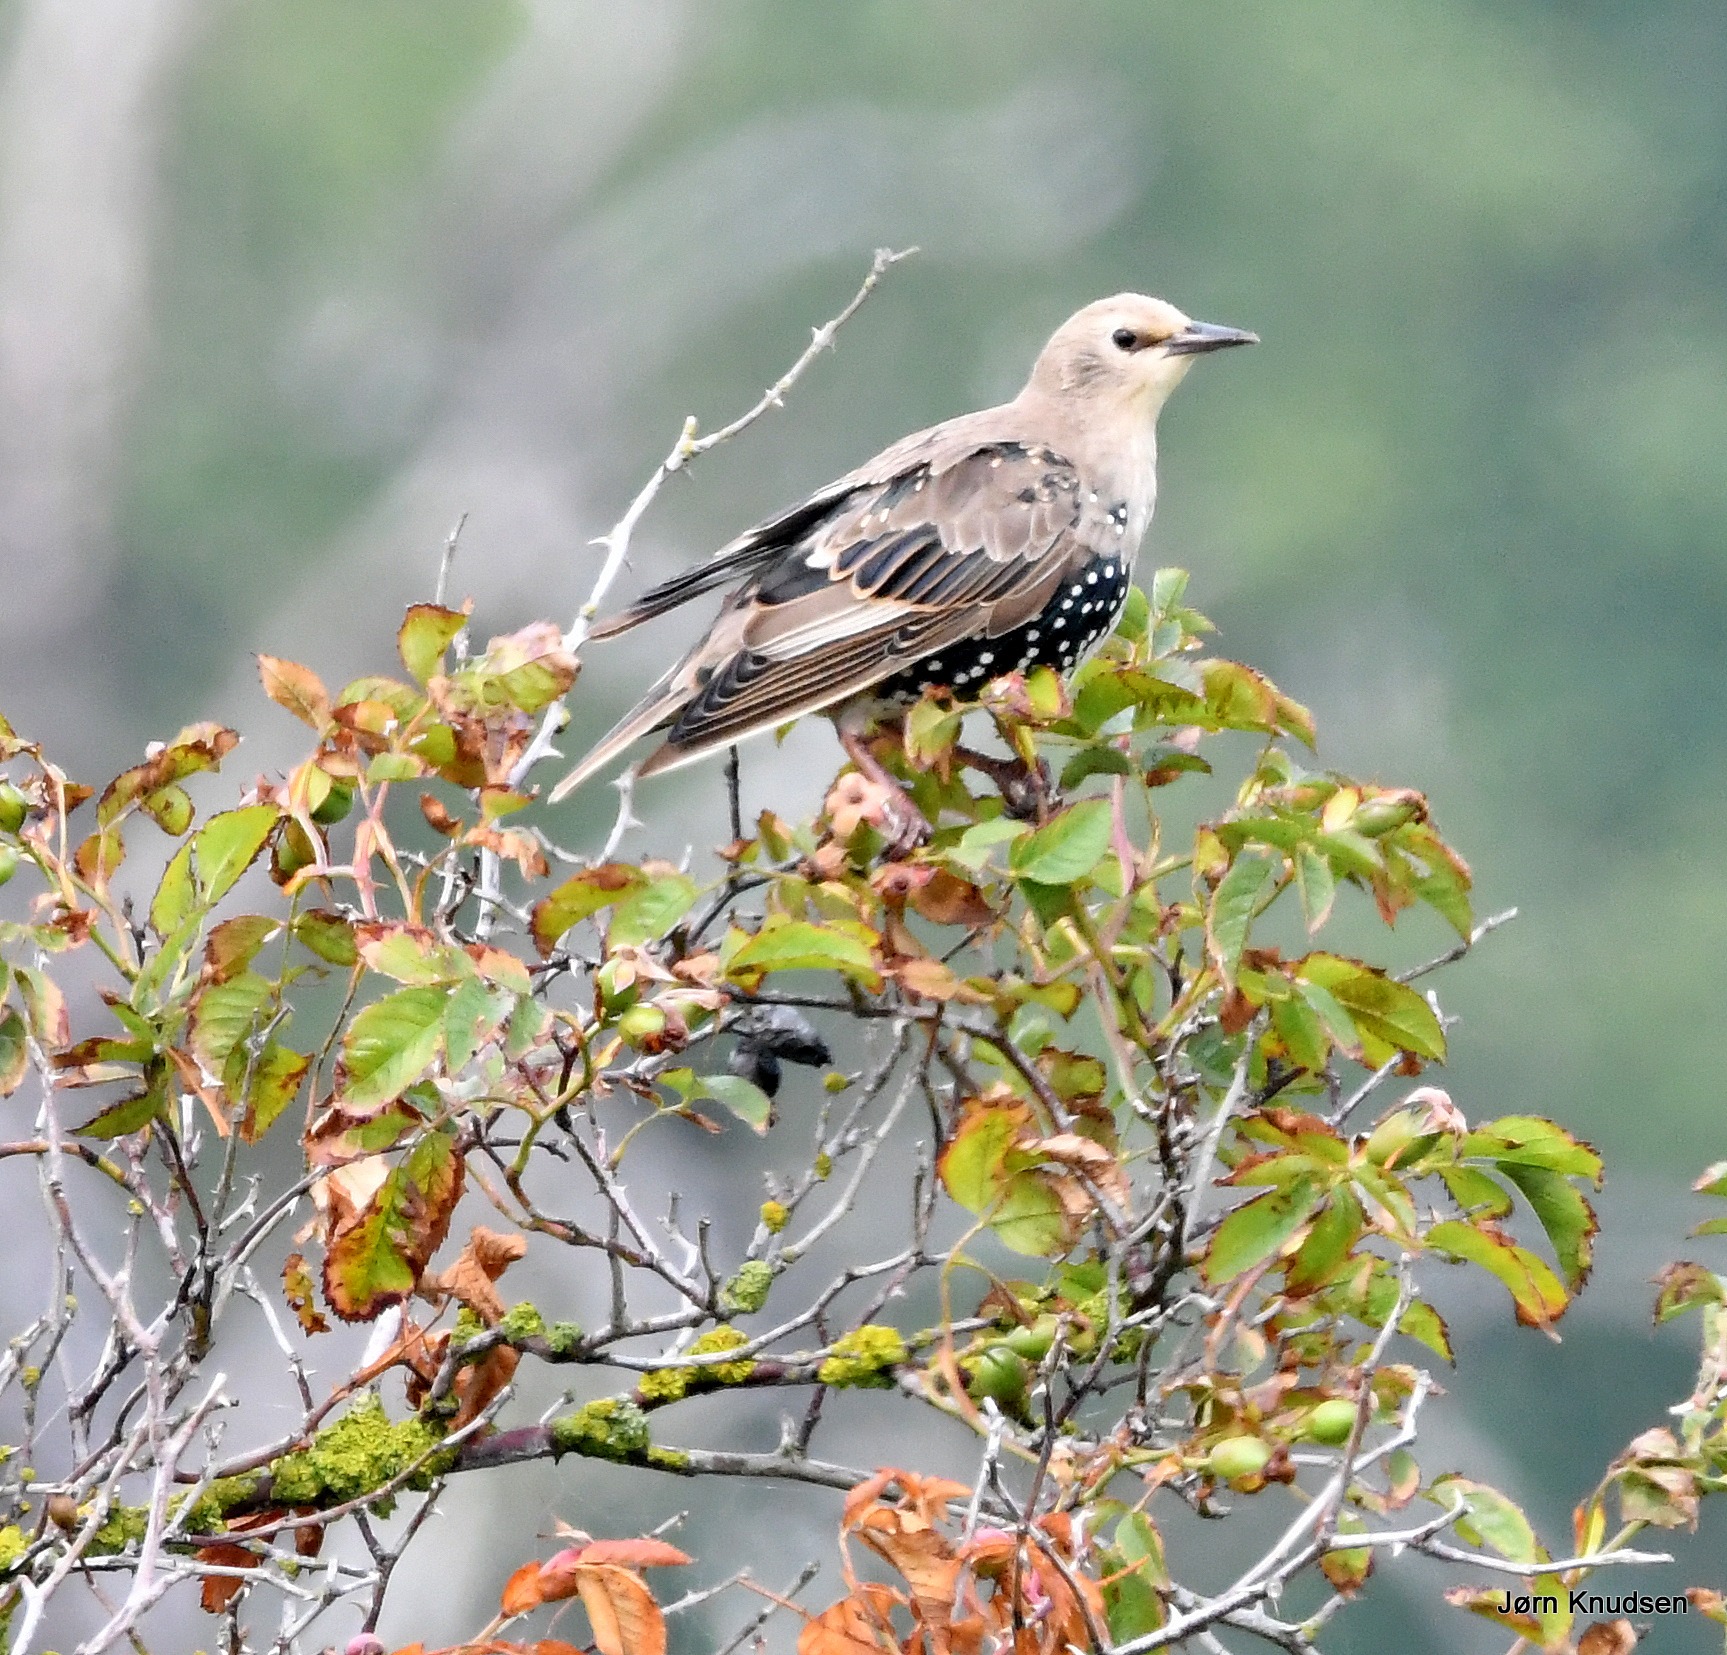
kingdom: Animalia
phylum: Chordata
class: Aves
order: Passeriformes
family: Sturnidae
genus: Sturnus
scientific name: Sturnus vulgaris
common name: Stær
